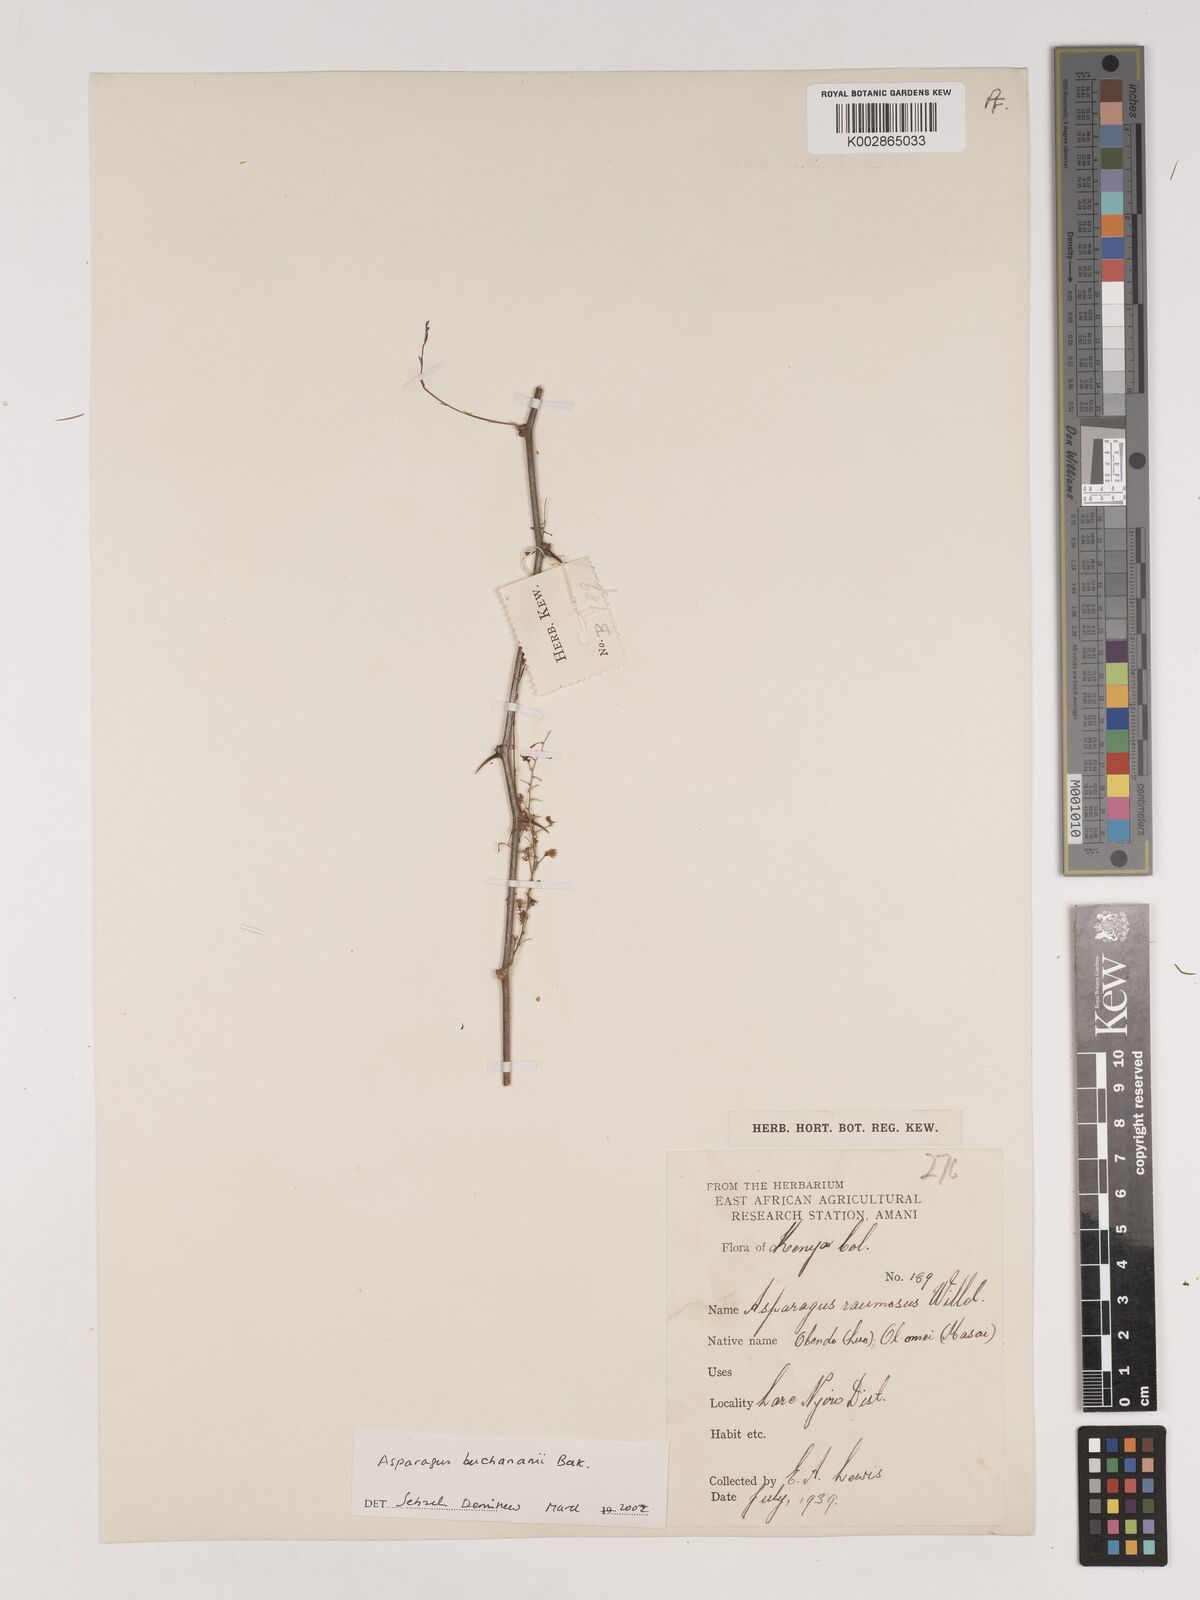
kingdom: Plantae
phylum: Tracheophyta
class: Liliopsida
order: Asparagales
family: Asparagaceae
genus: Asparagus
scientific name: Asparagus buchananii
